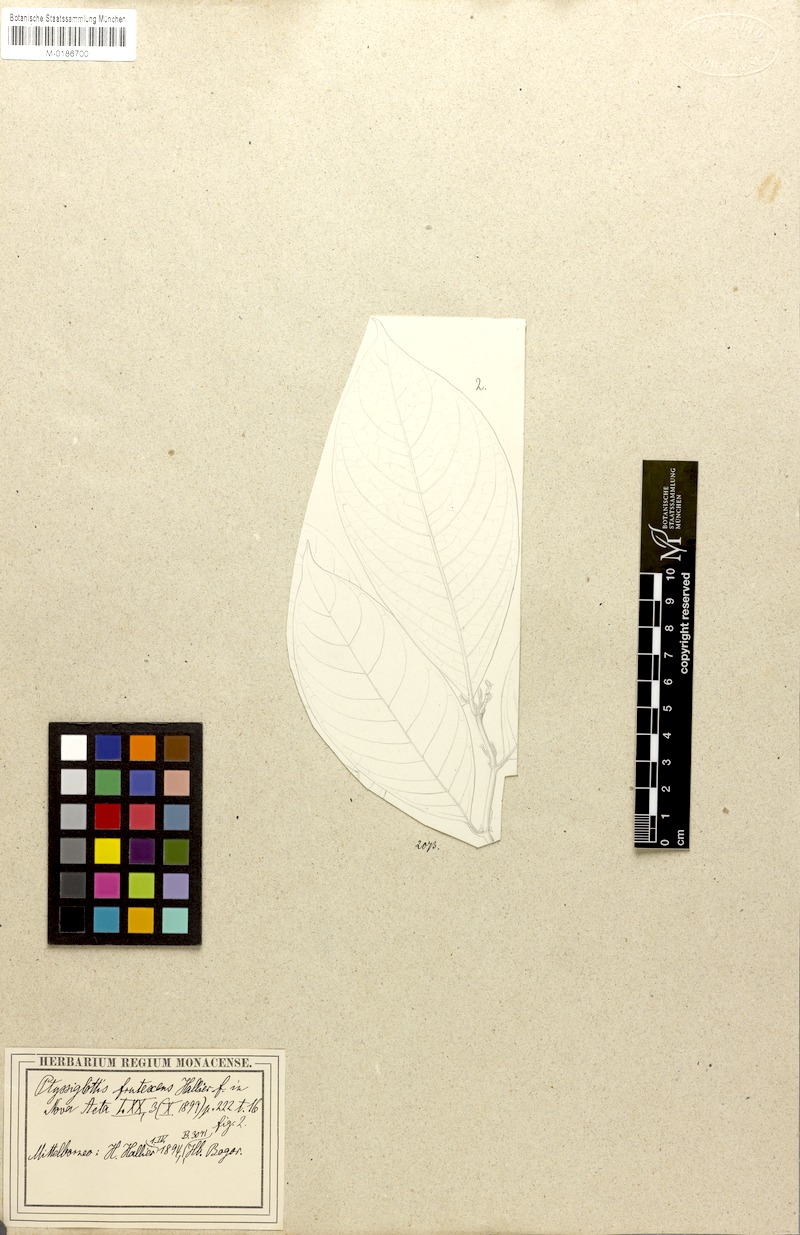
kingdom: Plantae
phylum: Tracheophyta
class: Magnoliopsida
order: Lamiales
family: Acanthaceae
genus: Ptyssiglottis
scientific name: Ptyssiglottis lanceolata
